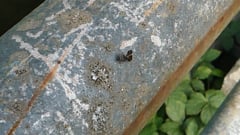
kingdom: Animalia
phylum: Arthropoda
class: Insecta
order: Diptera
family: Ulidiidae
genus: Callopistromyia
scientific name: Callopistromyia annulipes
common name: Peacock fly
